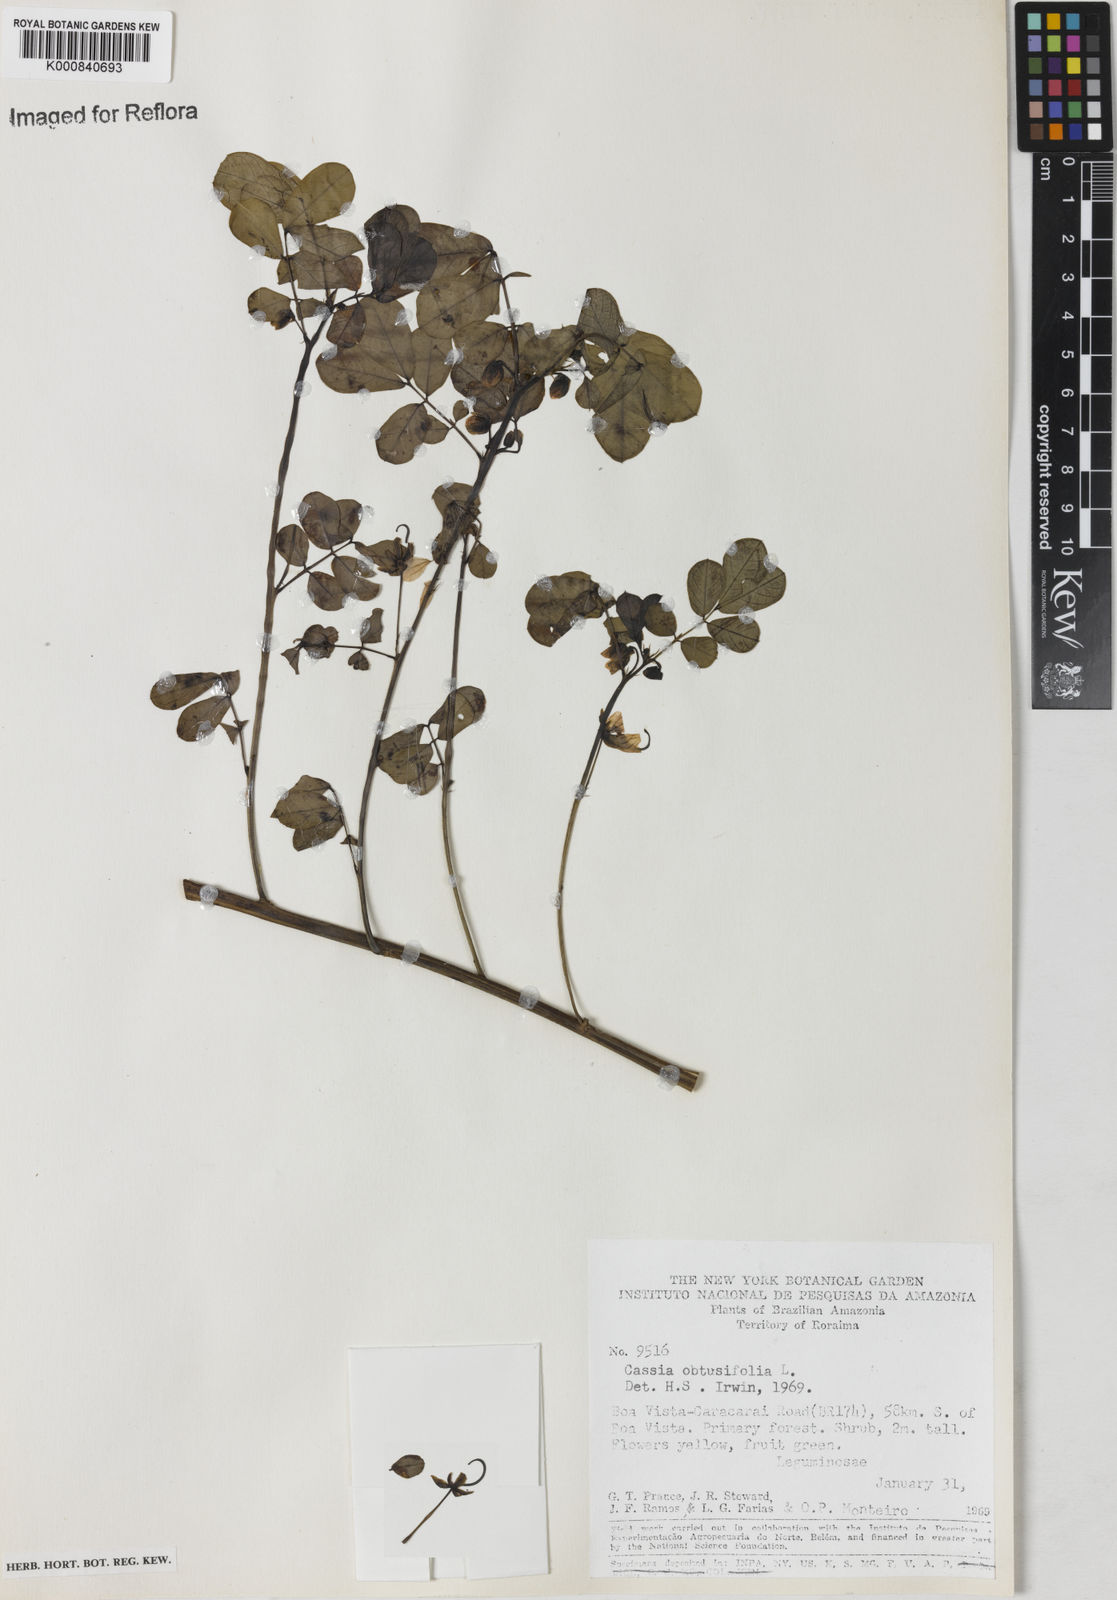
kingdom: Plantae
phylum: Tracheophyta
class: Magnoliopsida
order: Fabales
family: Fabaceae
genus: Senna
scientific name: Senna obtusifolia
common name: Java-bean
